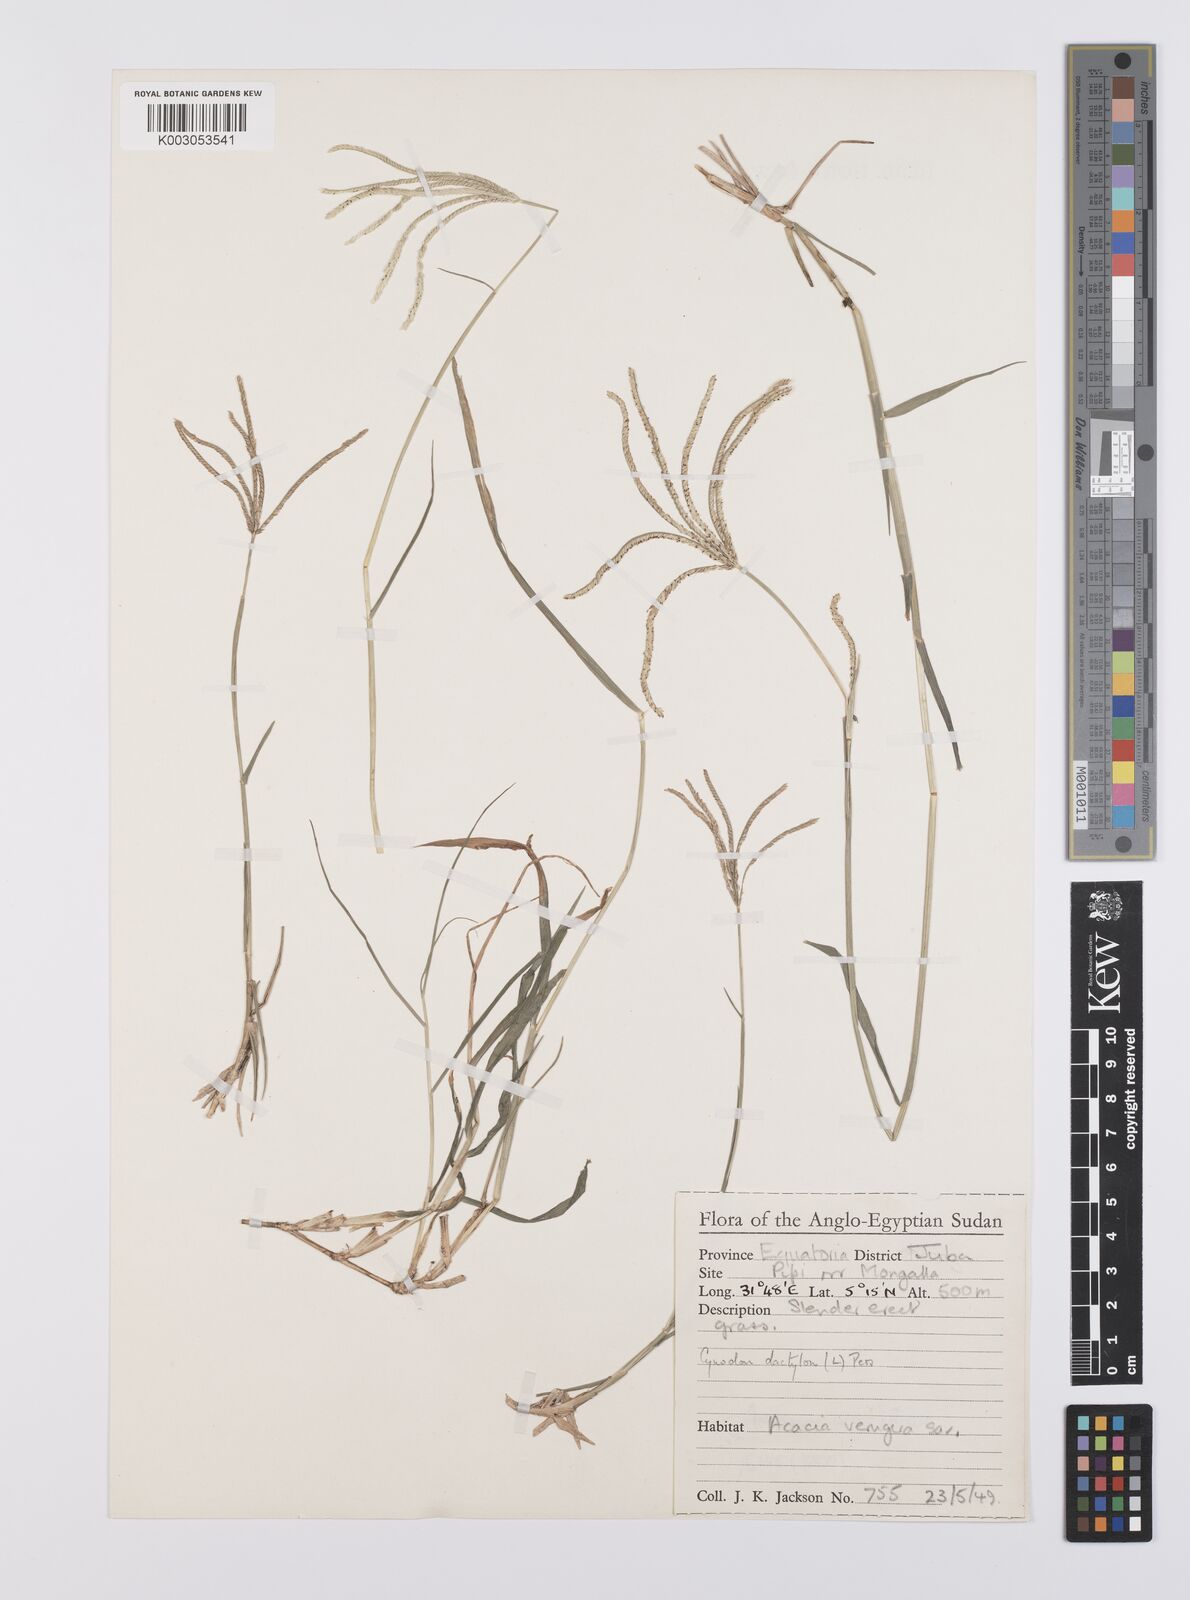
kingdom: Plantae
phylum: Tracheophyta
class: Liliopsida
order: Poales
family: Poaceae
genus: Cynodon
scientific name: Cynodon dactylon
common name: Bermuda grass
